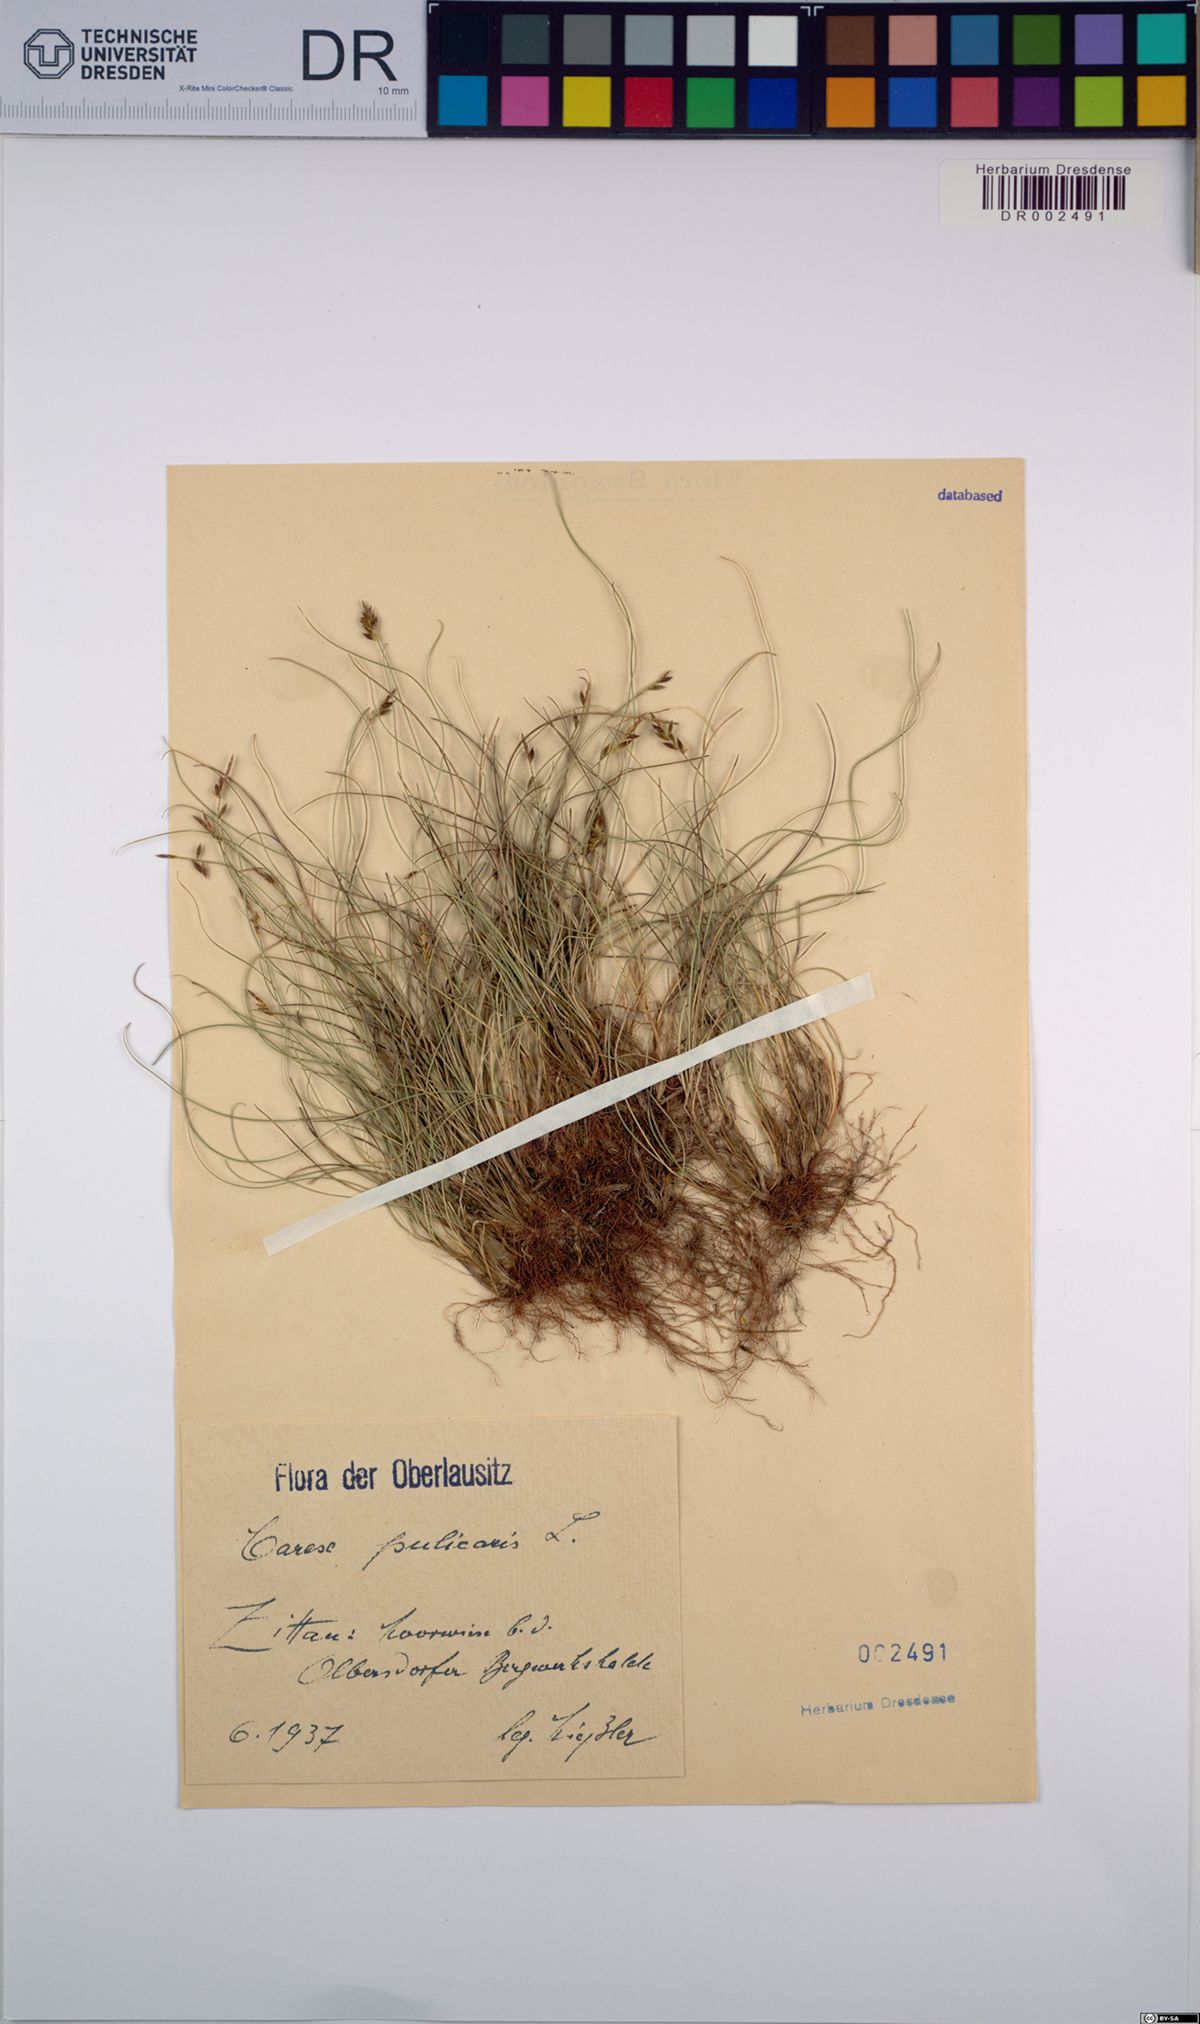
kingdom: Plantae
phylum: Tracheophyta
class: Liliopsida
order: Poales
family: Cyperaceae
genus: Carex
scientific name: Carex pulicaris
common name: Flea sedge
